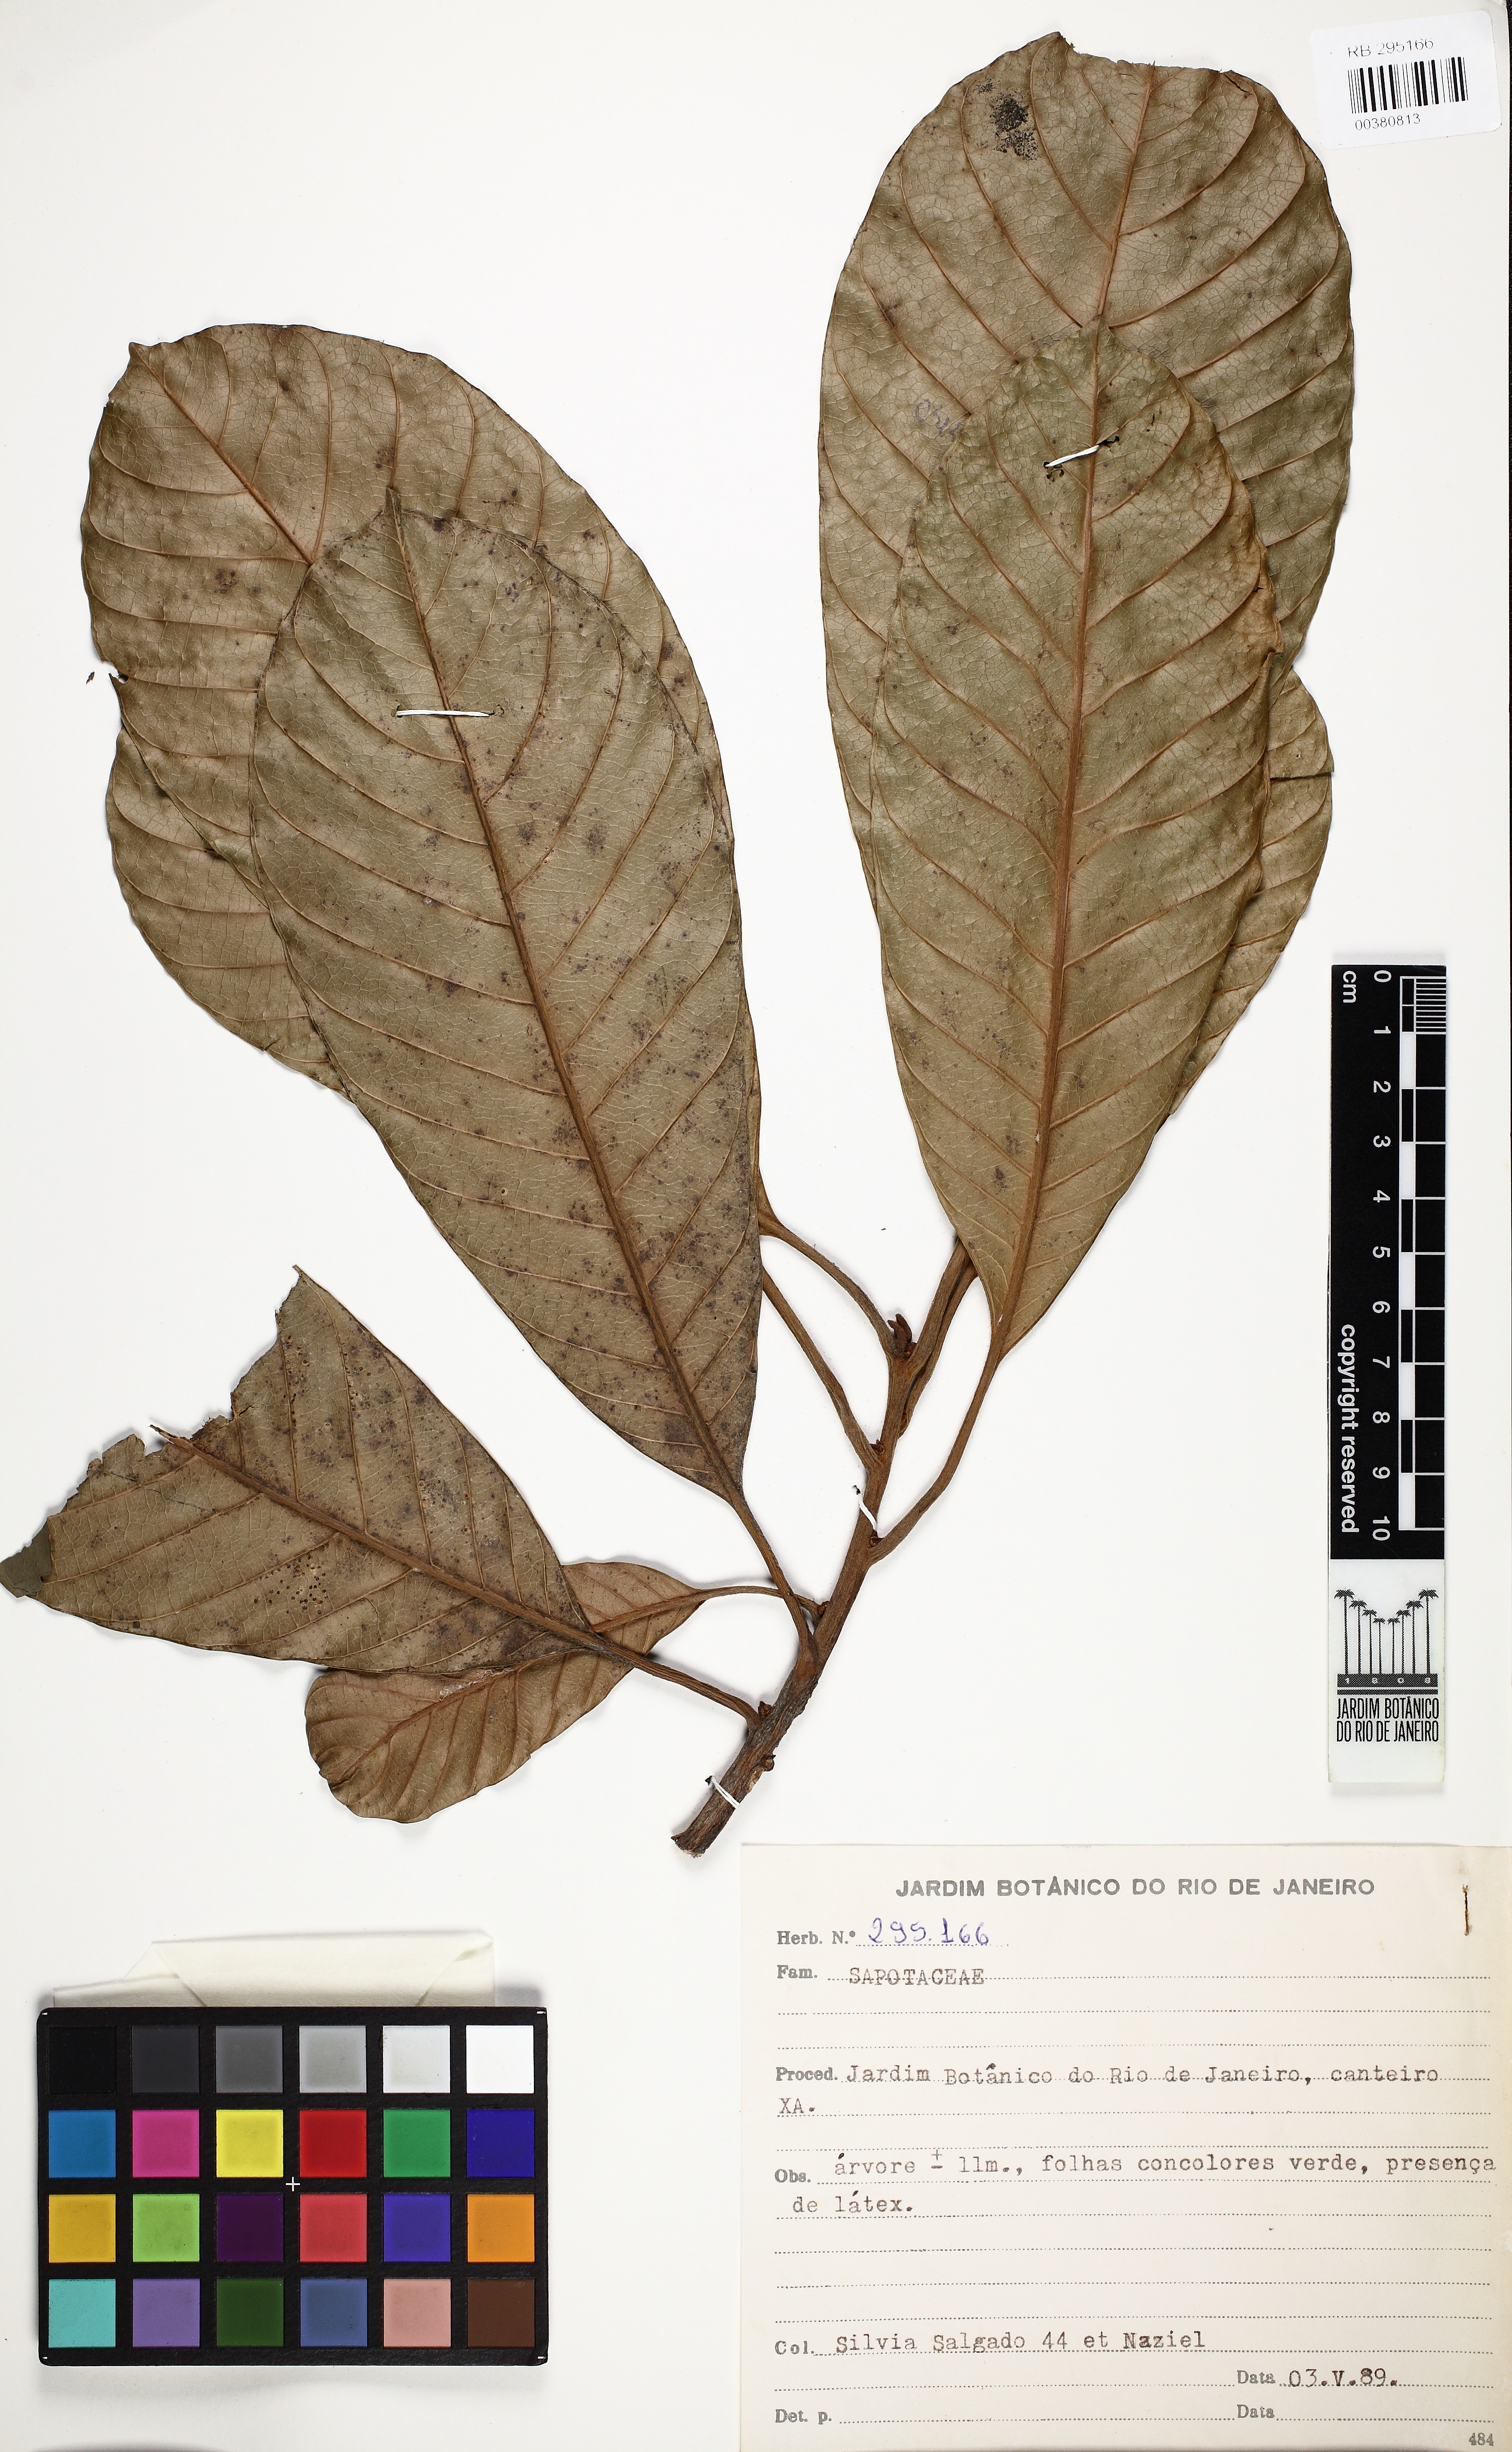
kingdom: Plantae
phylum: Tracheophyta
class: Magnoliopsida
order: Ericales
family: Sapotaceae
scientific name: Sapotaceae
